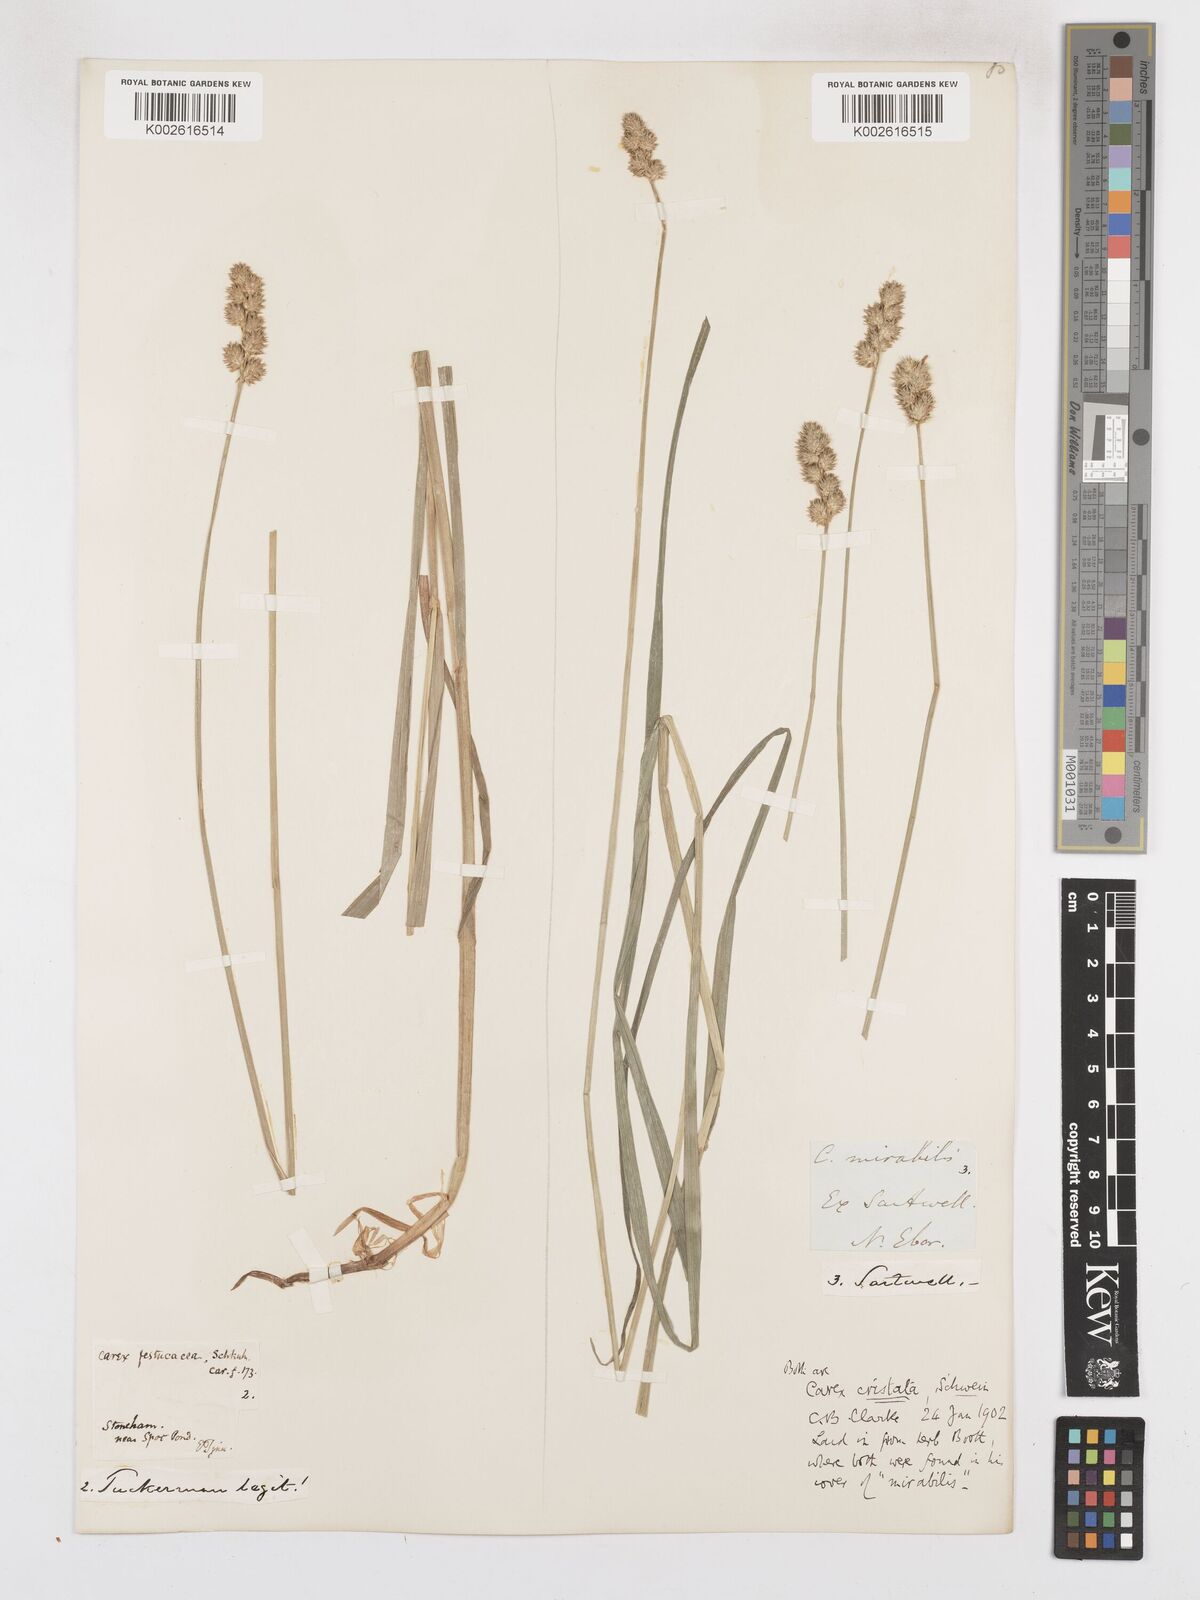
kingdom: Plantae
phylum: Tracheophyta
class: Liliopsida
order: Poales
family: Cyperaceae
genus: Carex
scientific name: Carex cristatella
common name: Crested oval sedge
